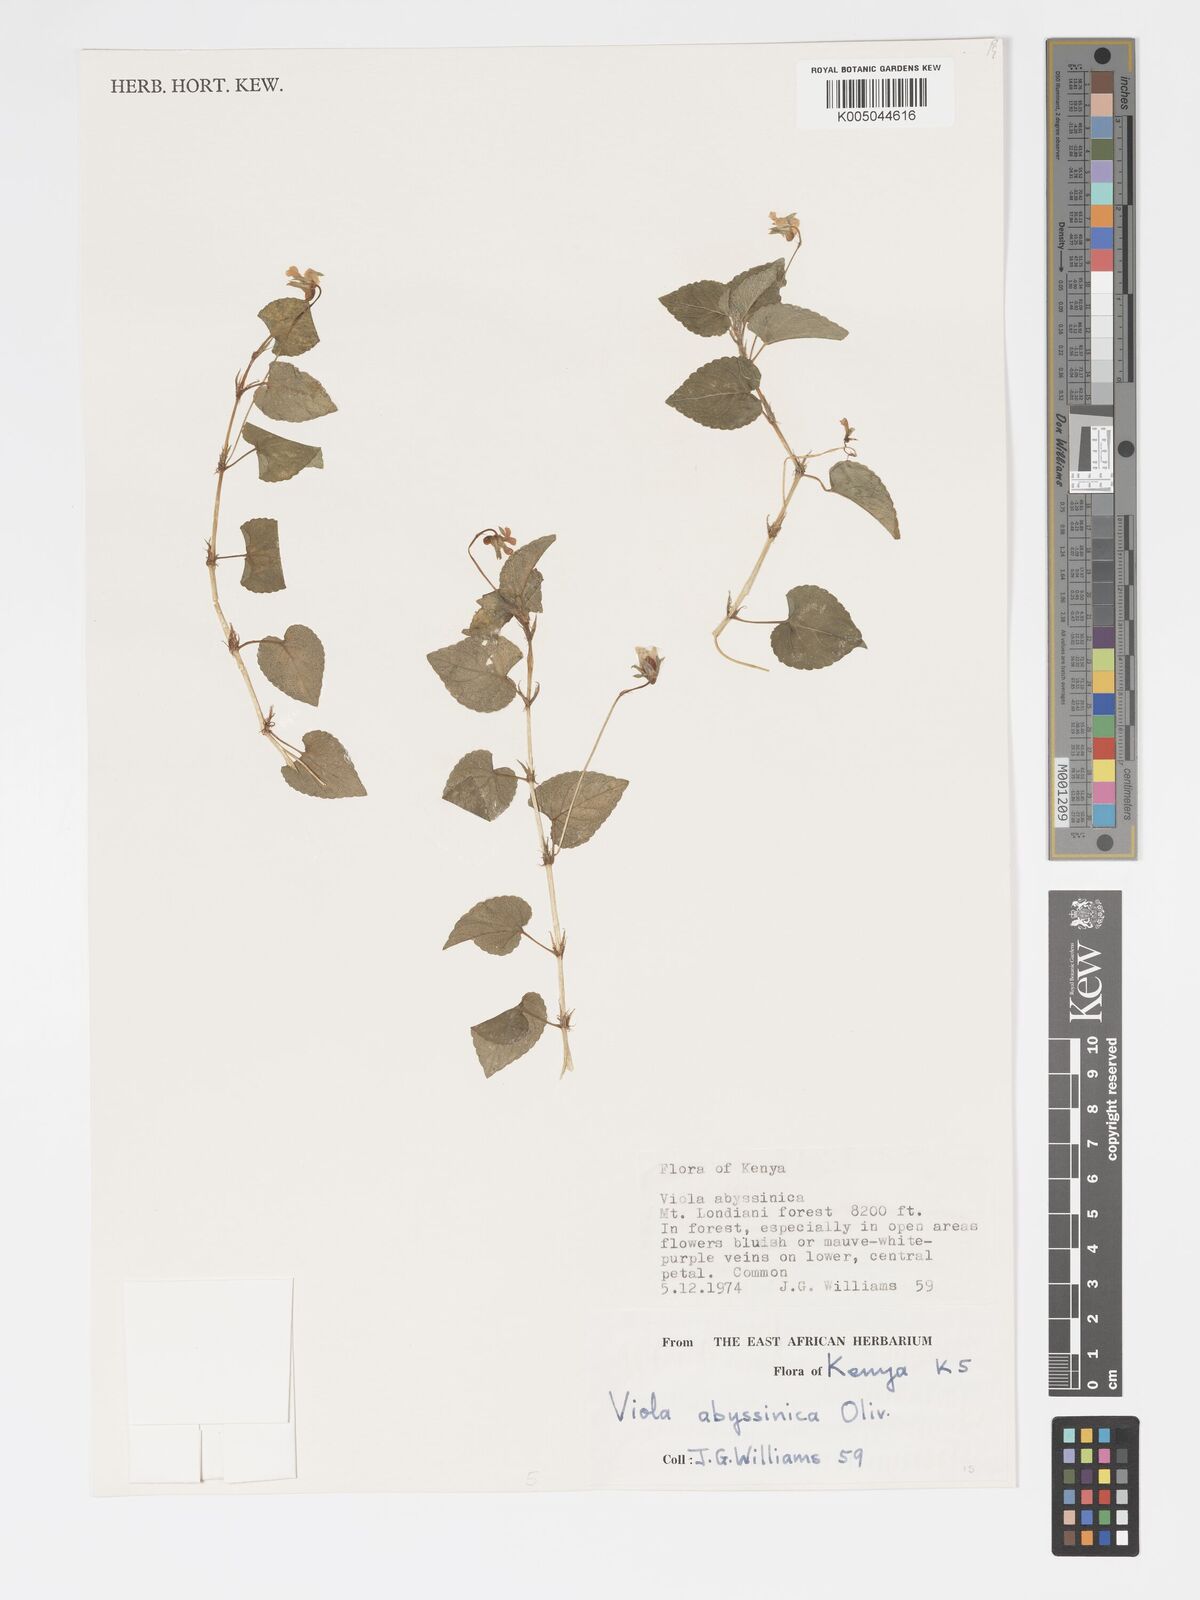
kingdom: Plantae
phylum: Tracheophyta
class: Magnoliopsida
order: Malpighiales
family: Violaceae
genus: Viola
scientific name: Viola abyssinica
